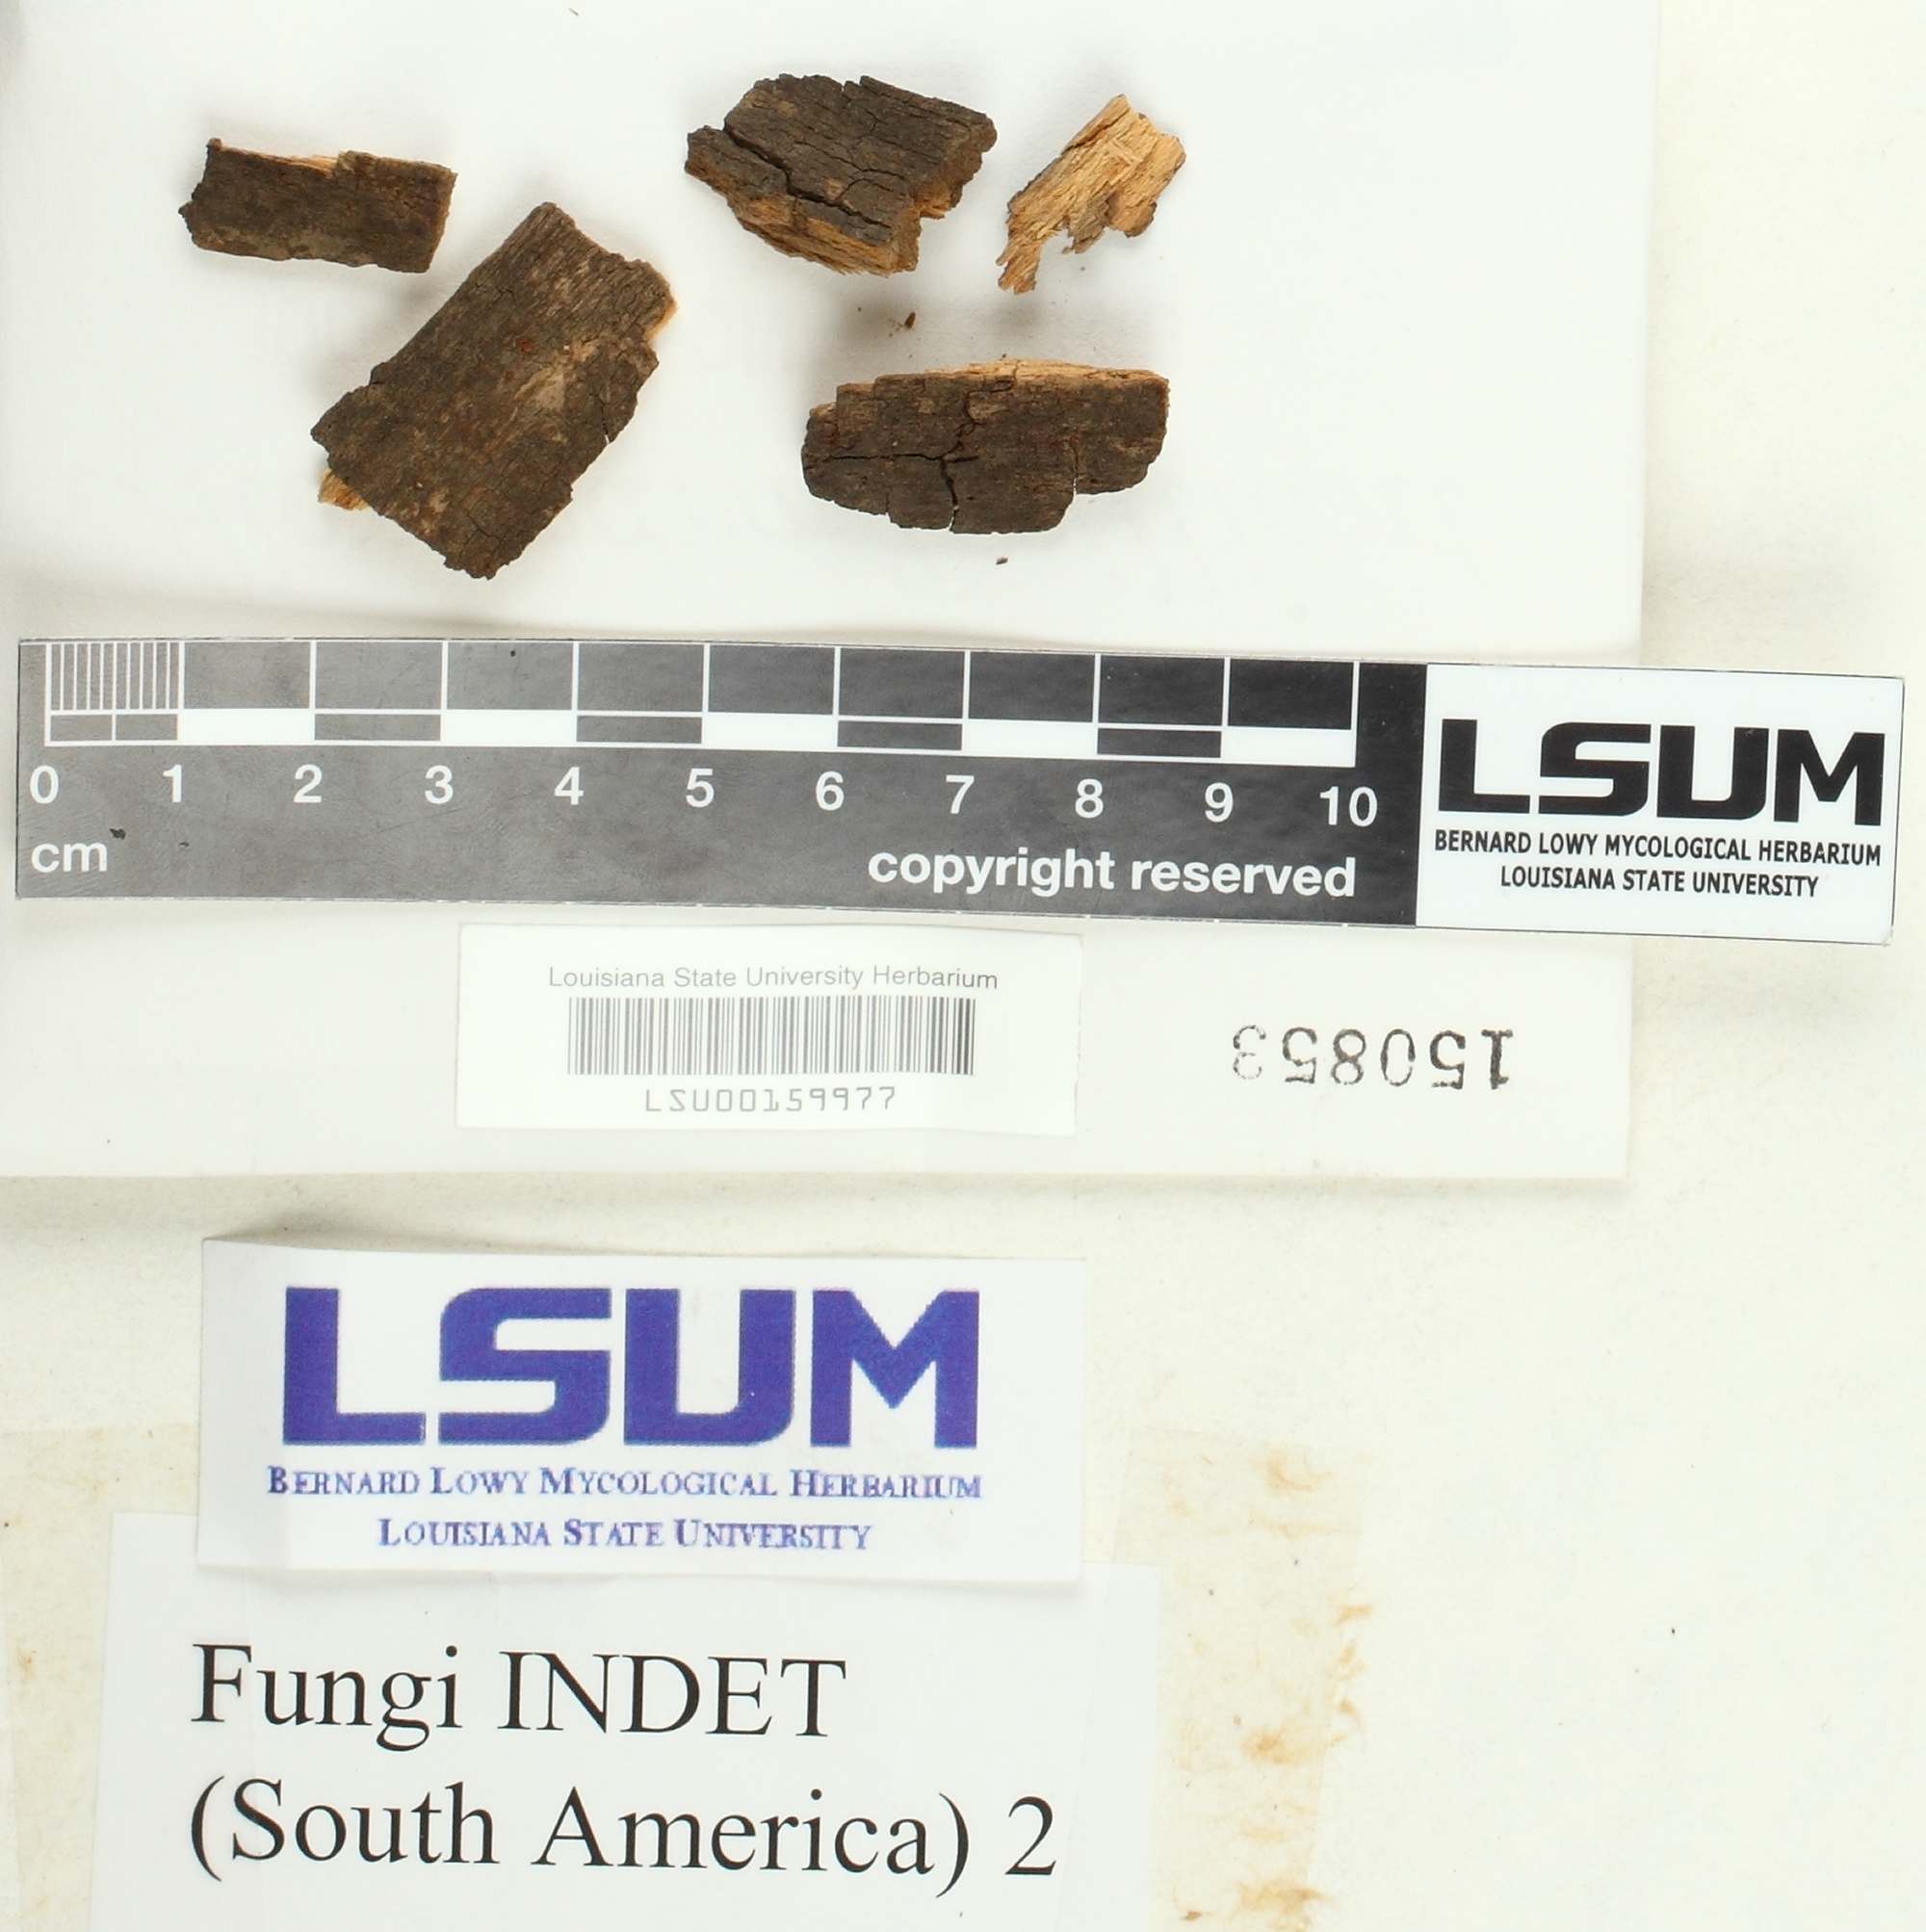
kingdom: Fungi
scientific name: Fungi
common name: Fungi
